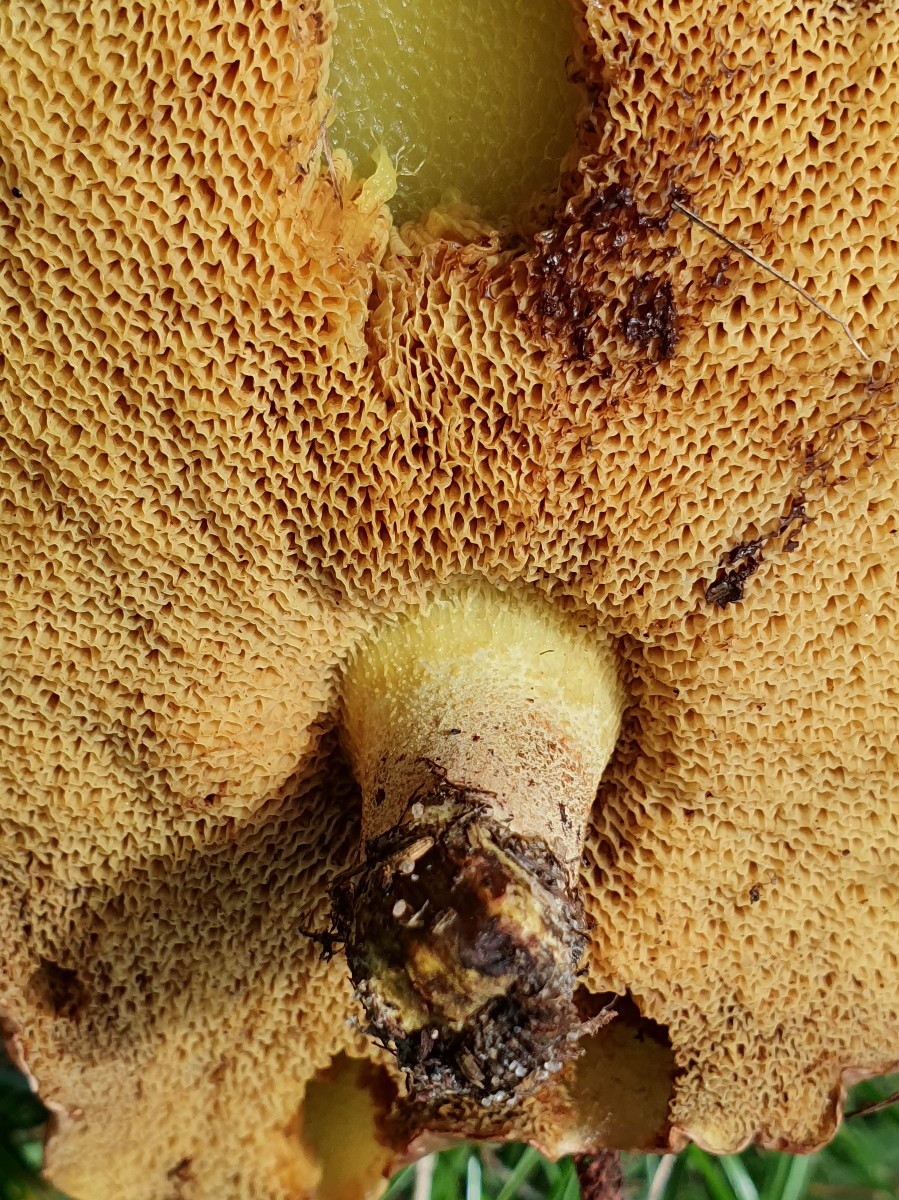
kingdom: Fungi
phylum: Basidiomycota
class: Agaricomycetes
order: Boletales
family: Suillaceae
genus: Suillus
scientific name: Suillus granulatus
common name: kornet slimrørhat
